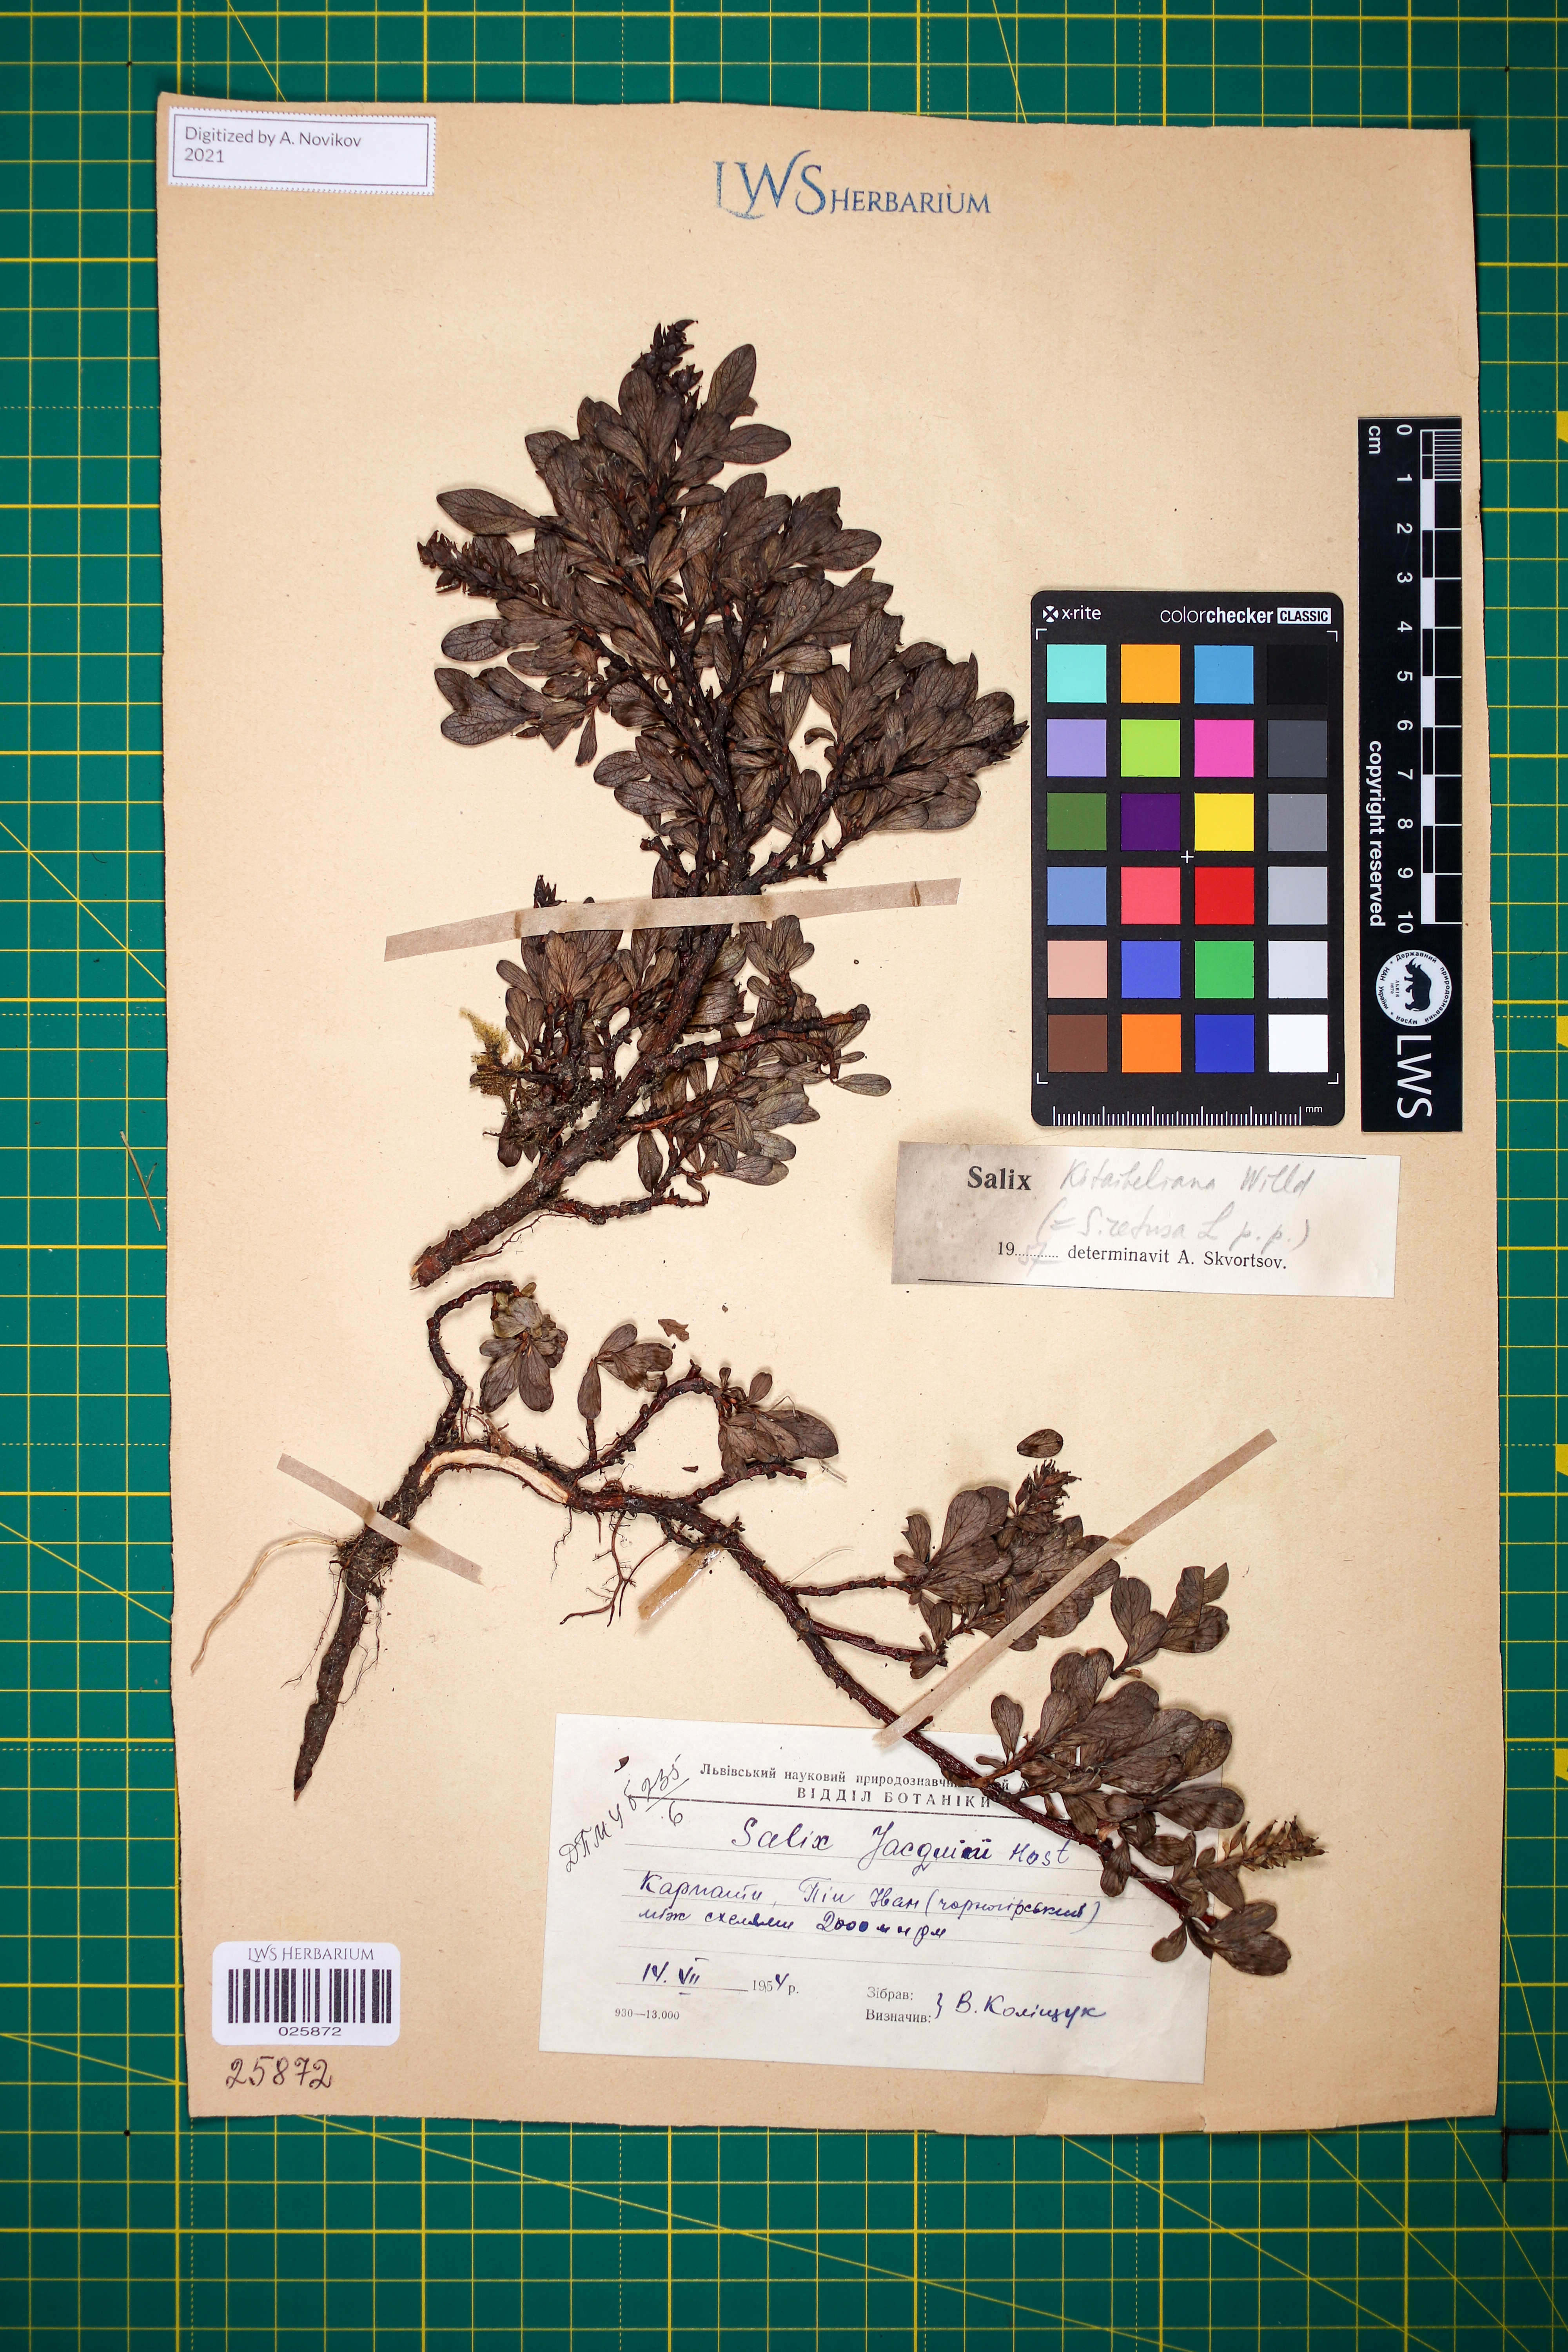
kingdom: Plantae
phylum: Tracheophyta
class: Magnoliopsida
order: Malpighiales
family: Salicaceae
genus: Salix
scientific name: Salix retusa
